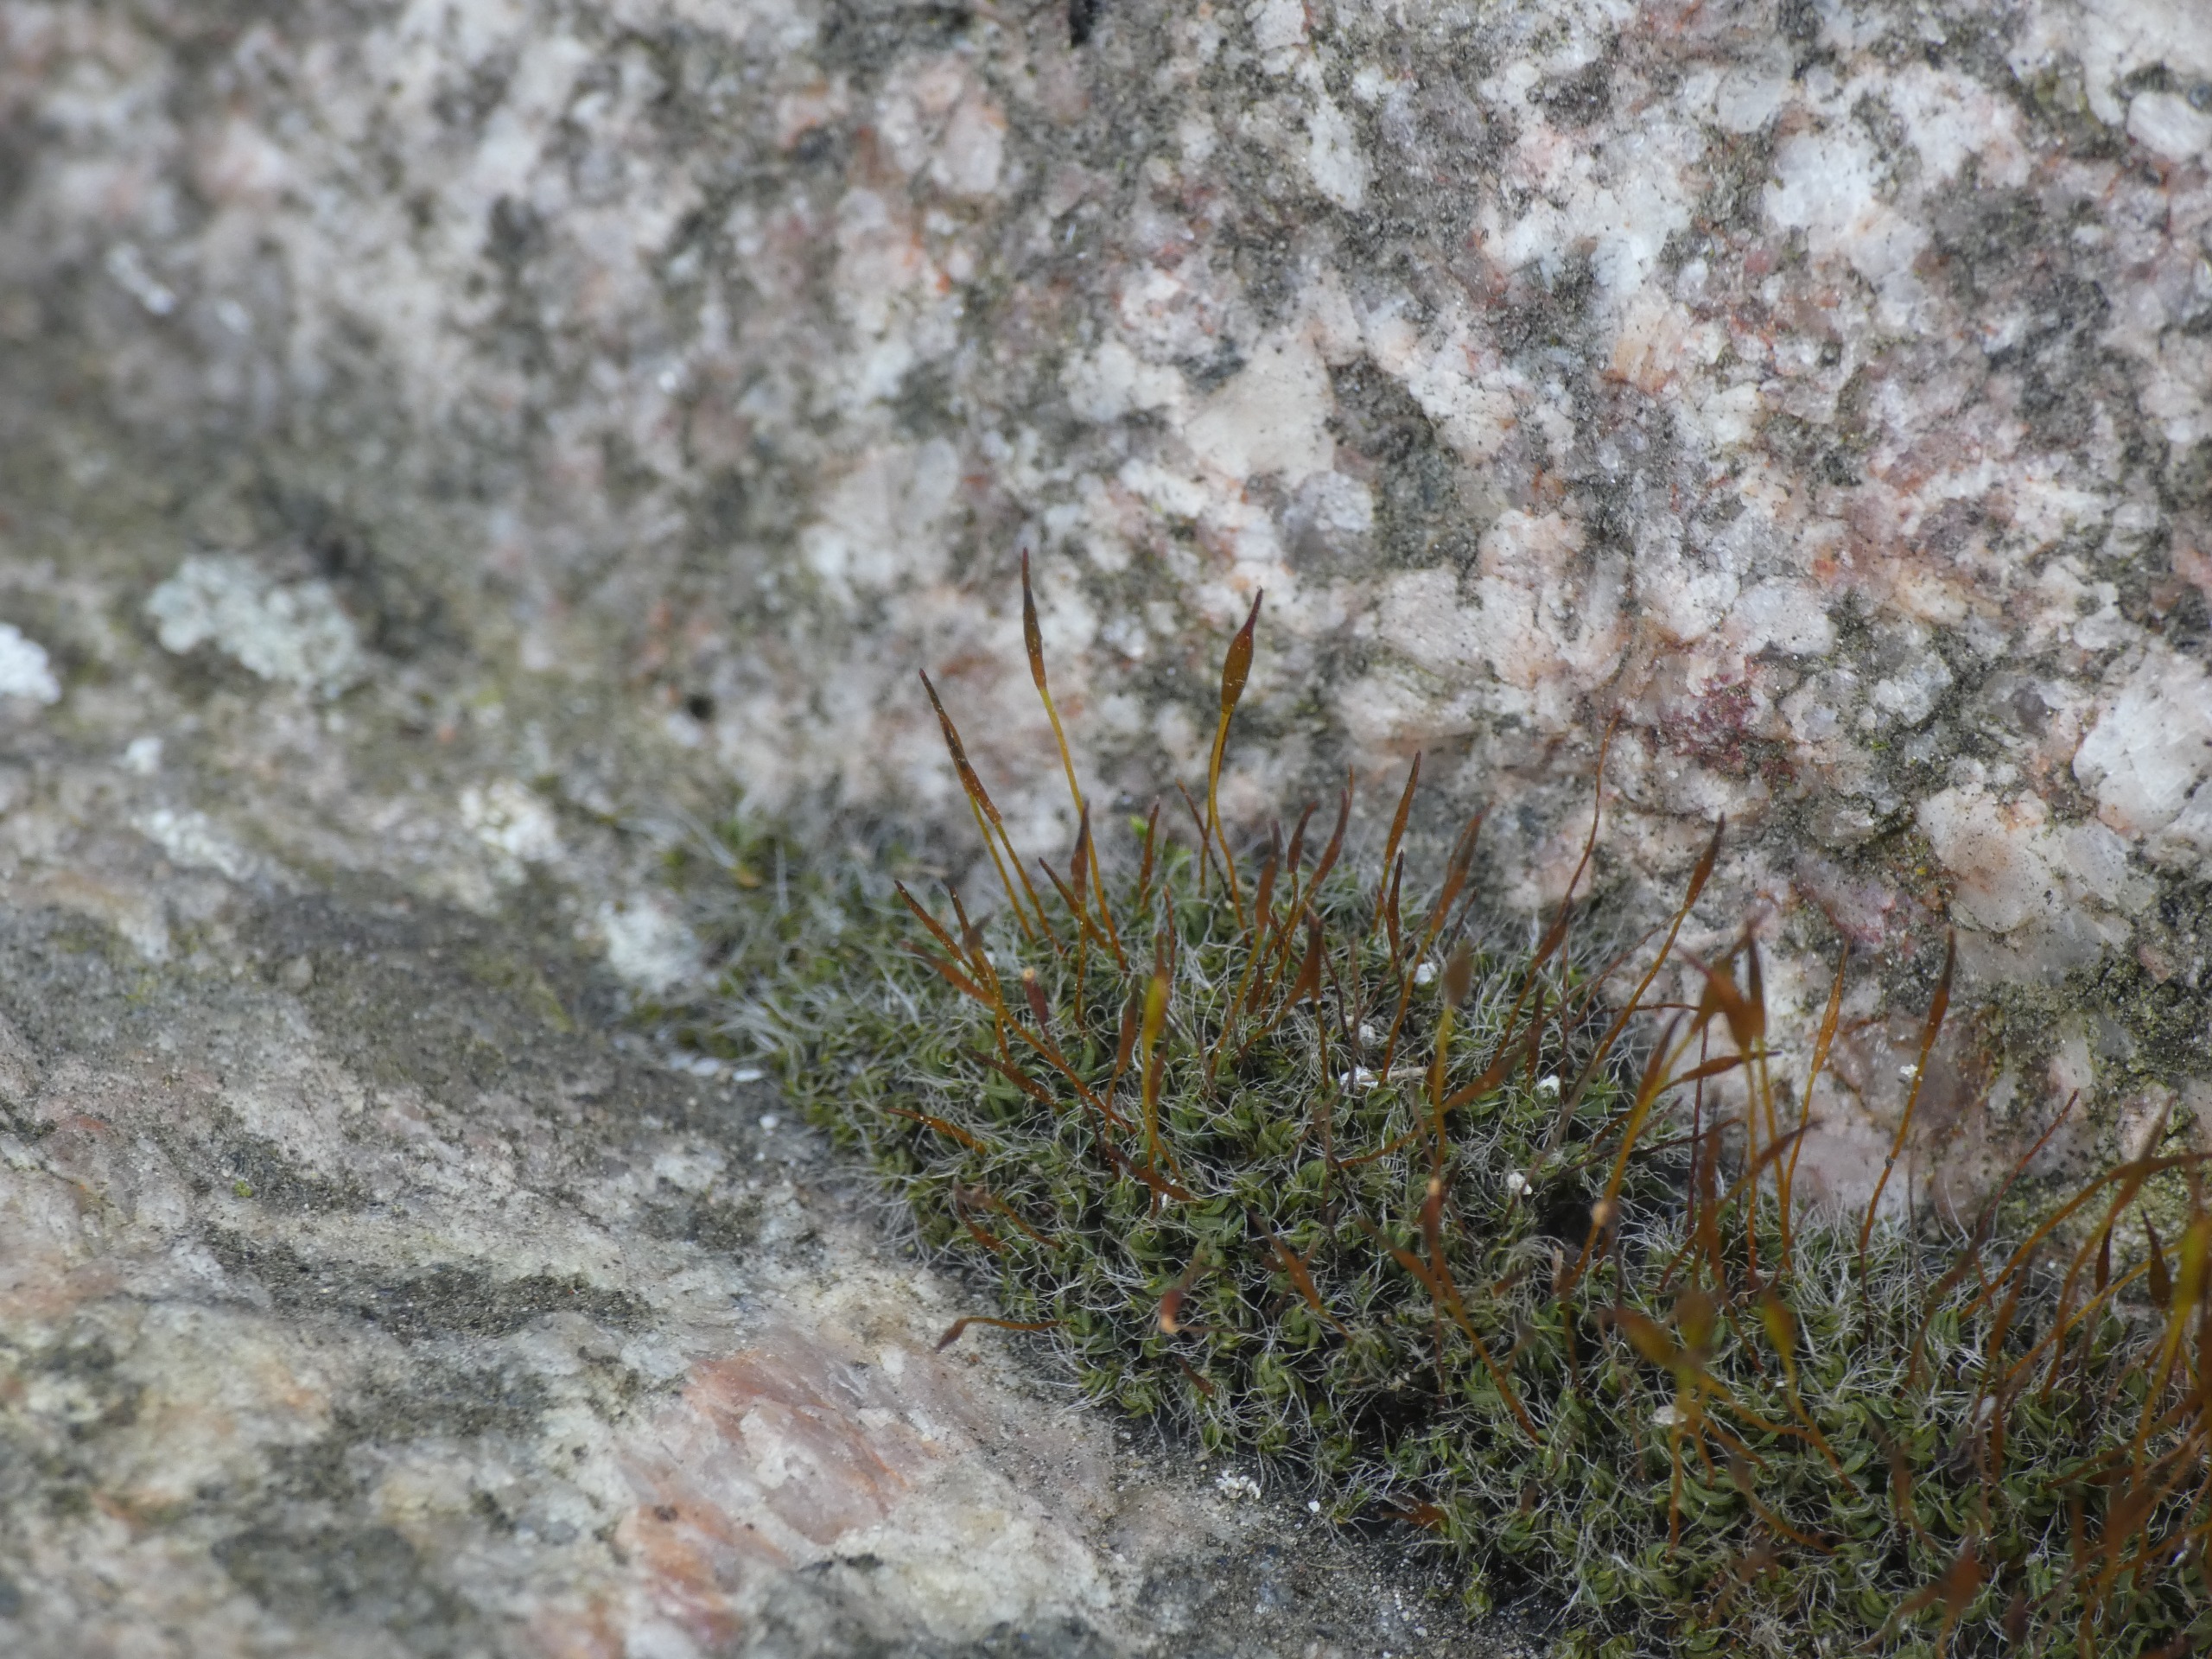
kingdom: Plantae
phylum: Bryophyta
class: Bryopsida
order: Pottiales
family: Pottiaceae
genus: Tortula
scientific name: Tortula muralis
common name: Mur-snotand
